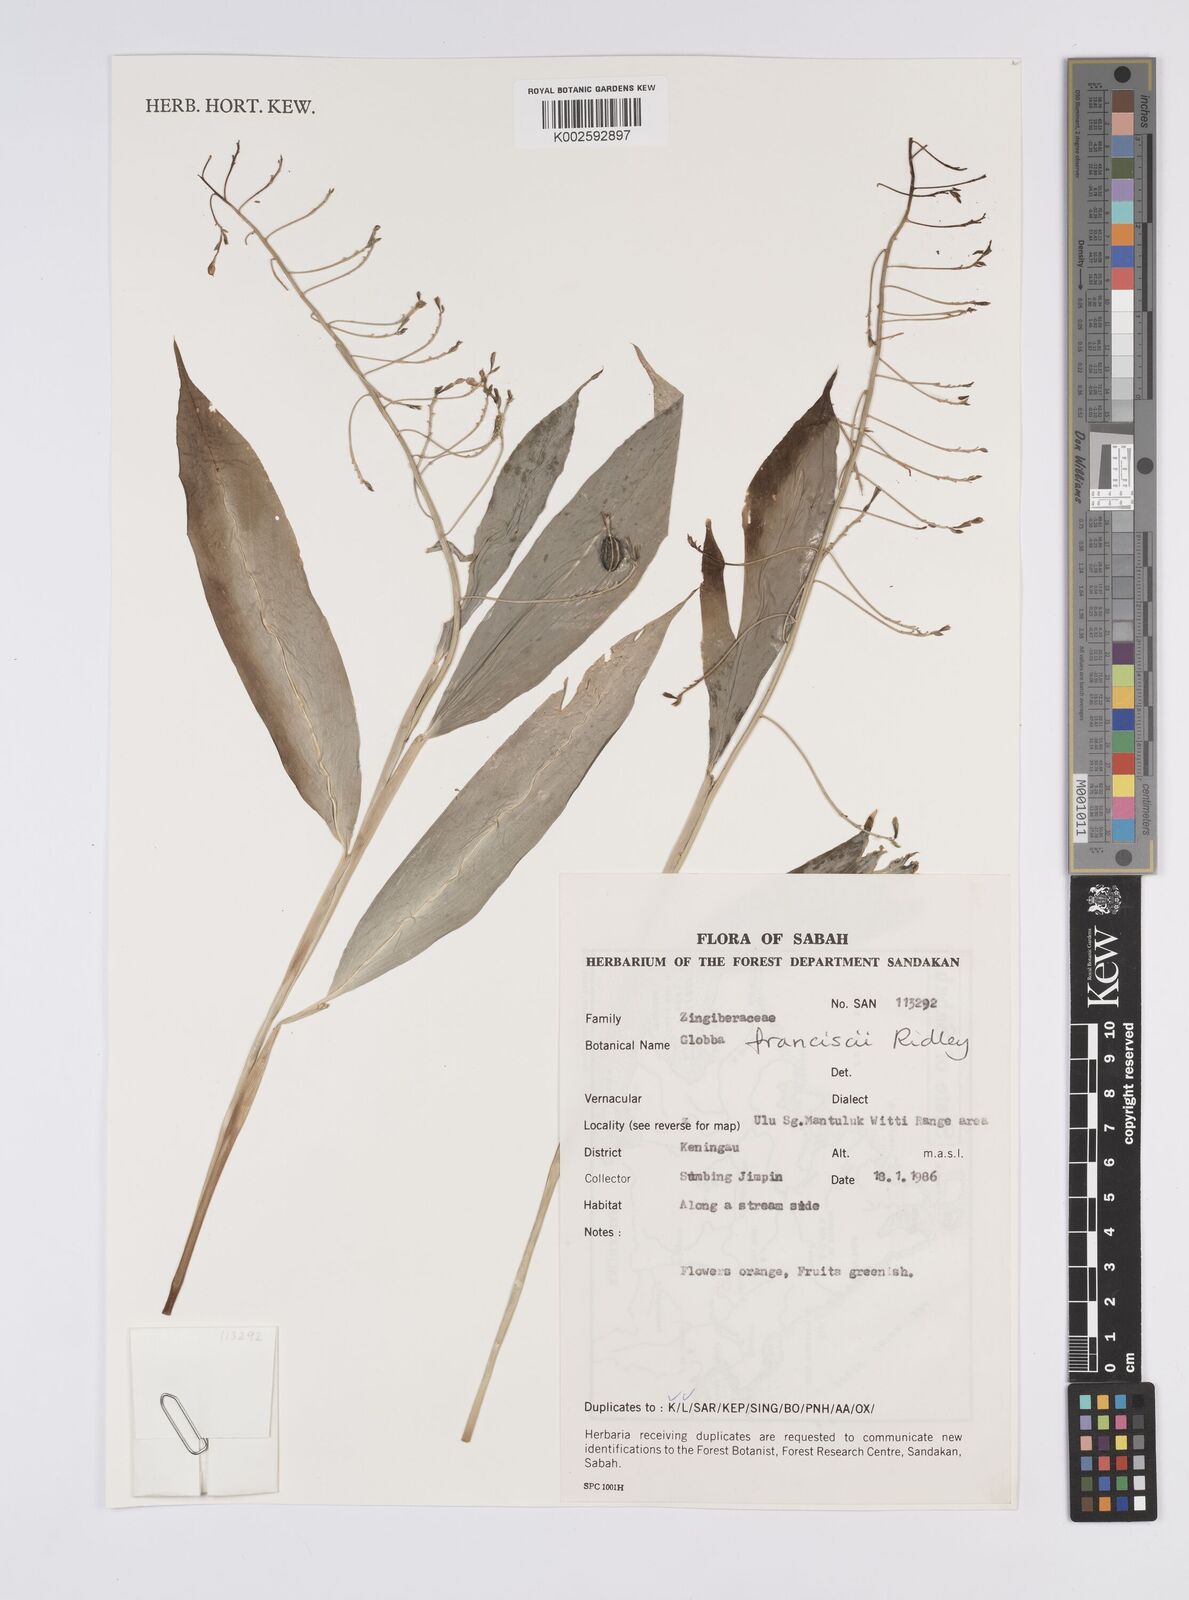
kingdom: Plantae
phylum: Tracheophyta
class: Liliopsida
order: Zingiberales
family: Zingiberaceae
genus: Globba
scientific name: Globba francisci
